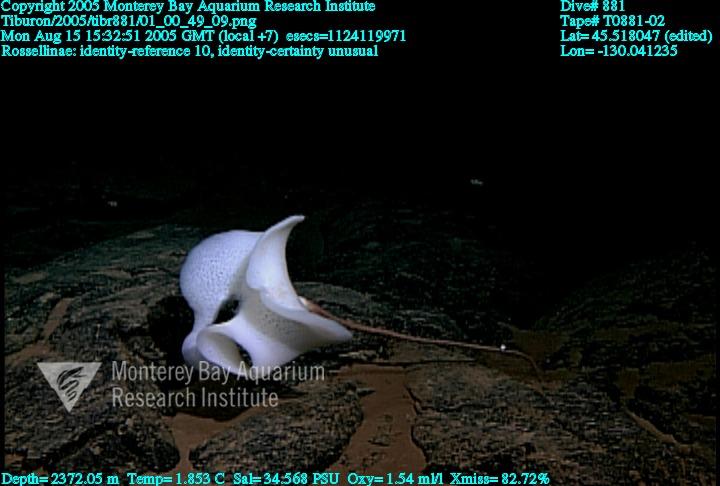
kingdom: Animalia
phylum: Porifera
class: Hexactinellida
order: Lyssacinosida
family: Rossellidae
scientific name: Rossellidae
